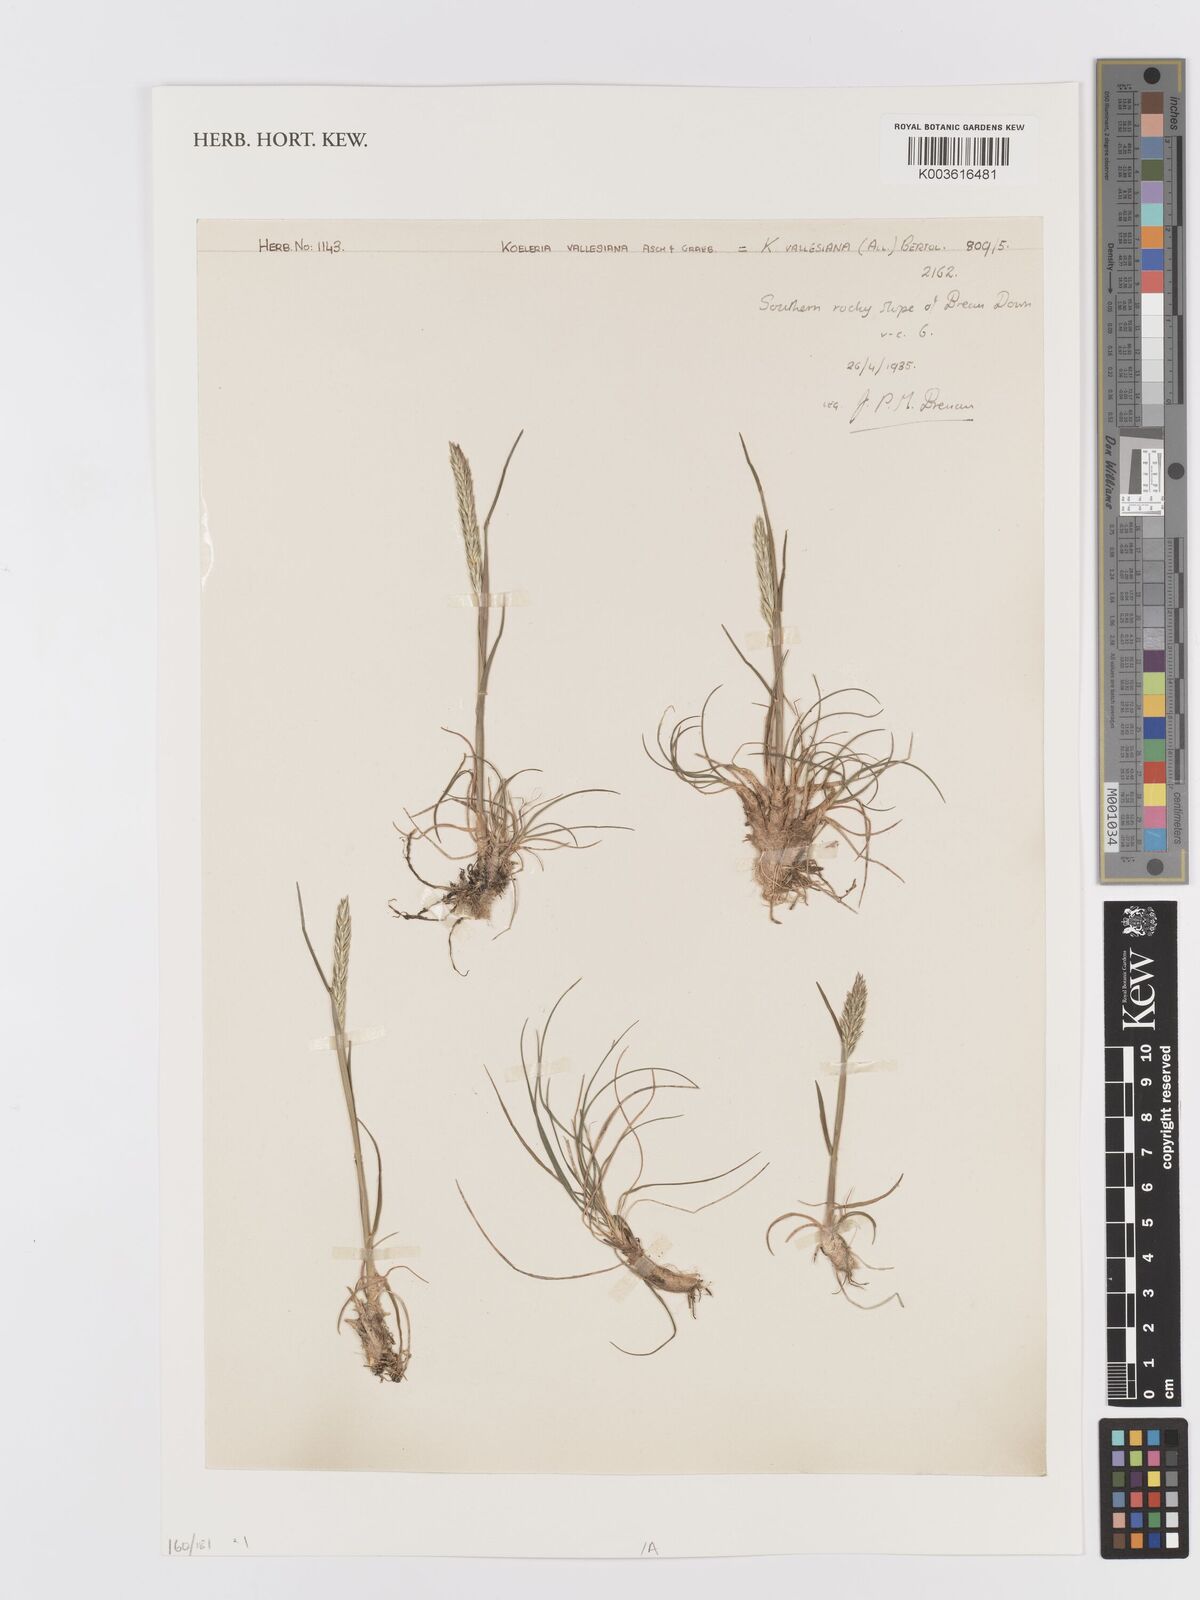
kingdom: Plantae
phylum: Tracheophyta
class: Liliopsida
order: Poales
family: Poaceae
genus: Koeleria
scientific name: Koeleria vallesiana
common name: Somerset hair-grass
